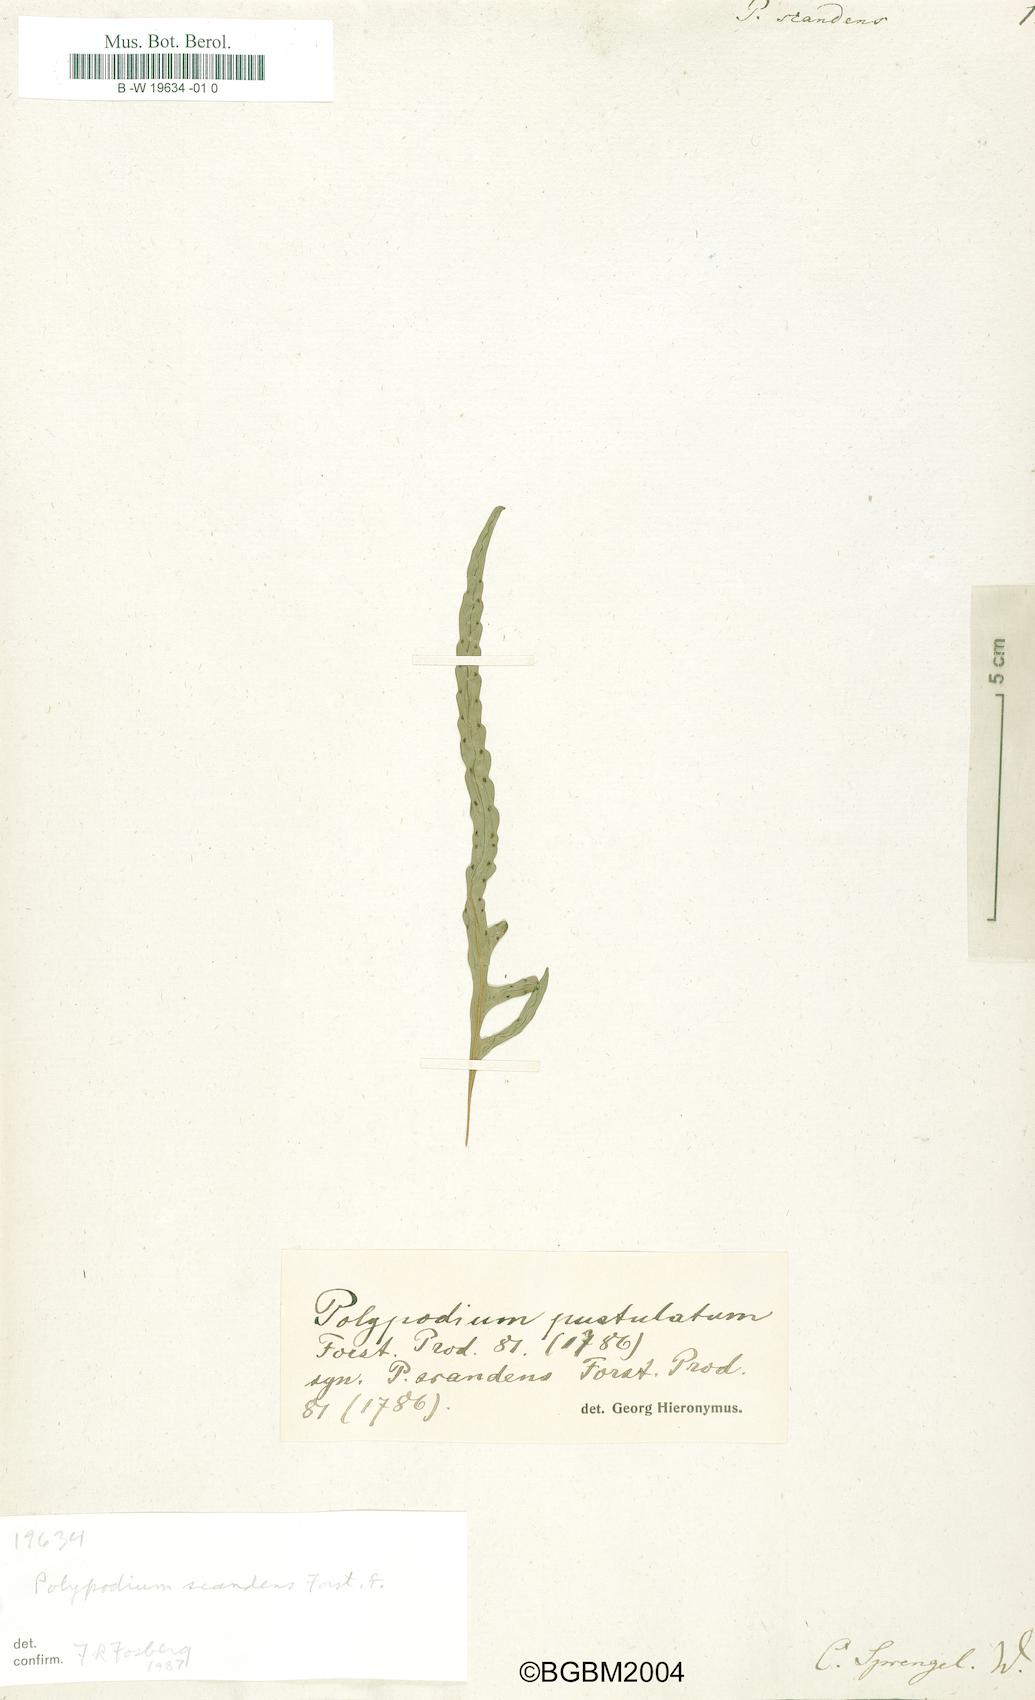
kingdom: Plantae
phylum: Tracheophyta
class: Polypodiopsida
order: Polypodiales
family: Polypodiaceae
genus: Lecanopteris
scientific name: Lecanopteris scandens
